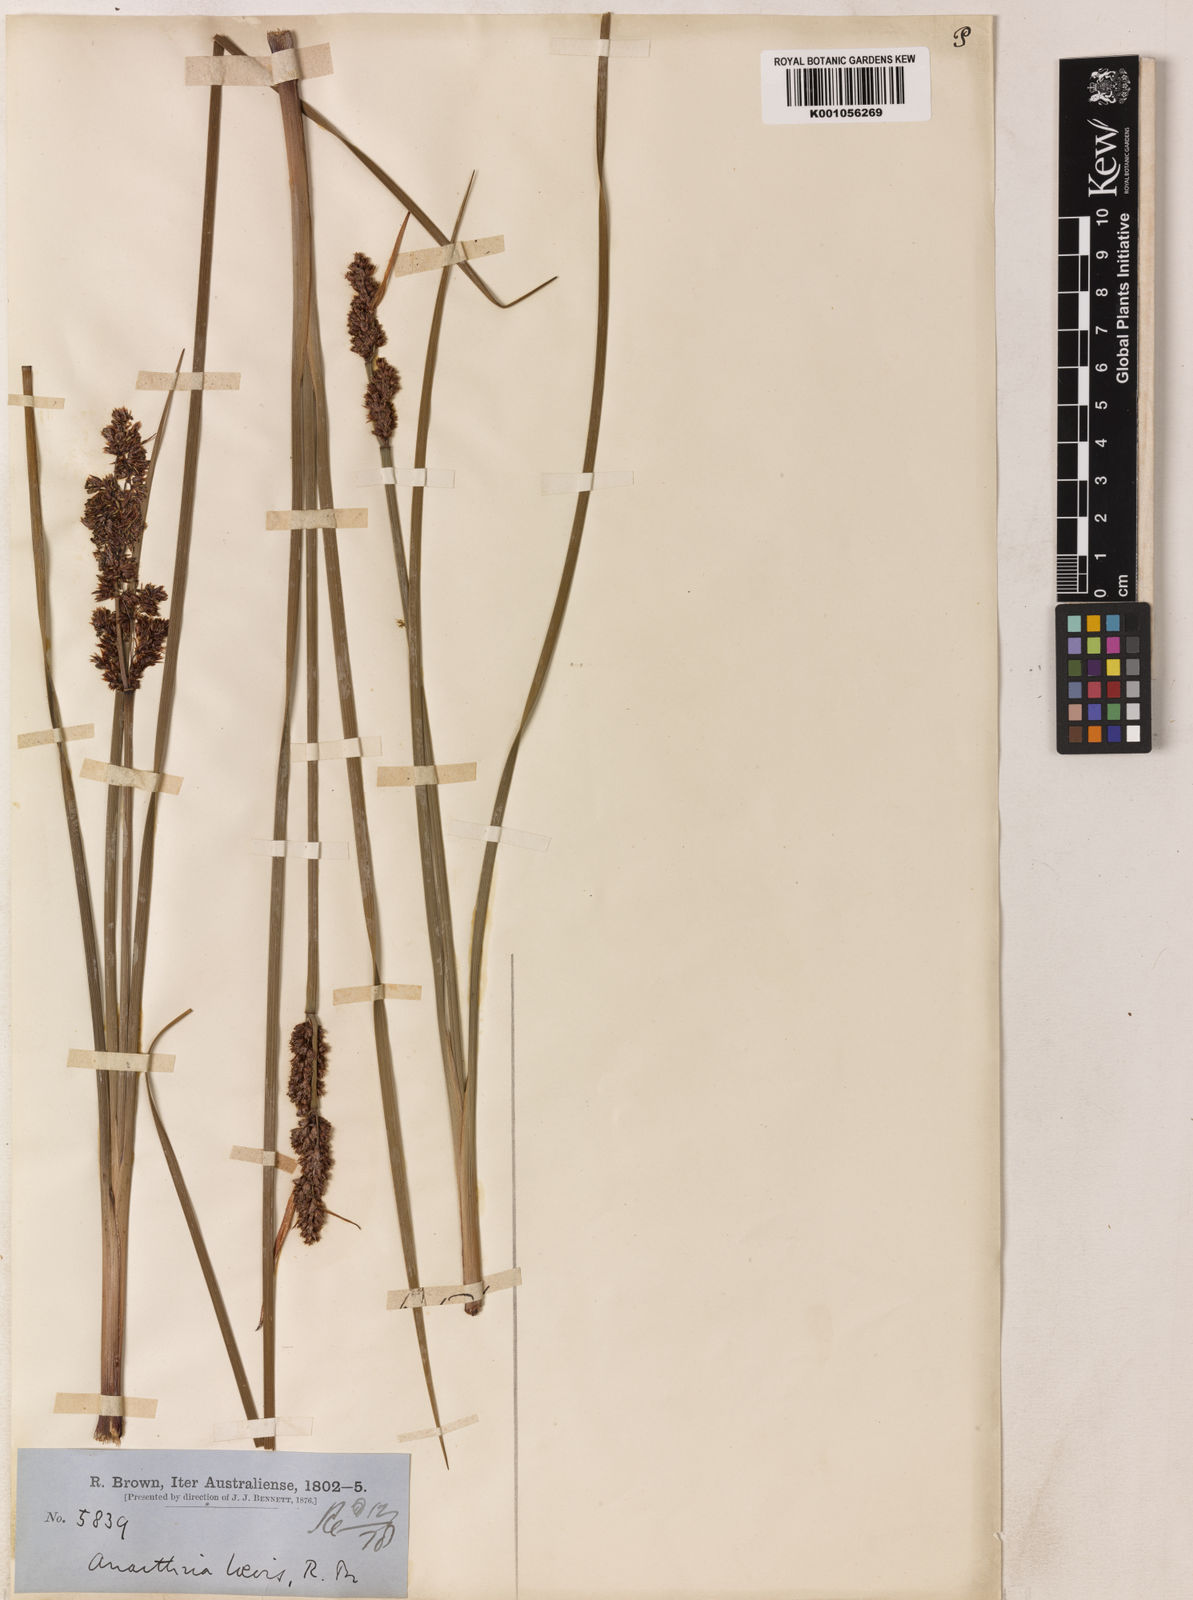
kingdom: Plantae
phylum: Tracheophyta
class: Liliopsida
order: Poales
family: Restionaceae
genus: Anarthria
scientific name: Anarthria laevis
